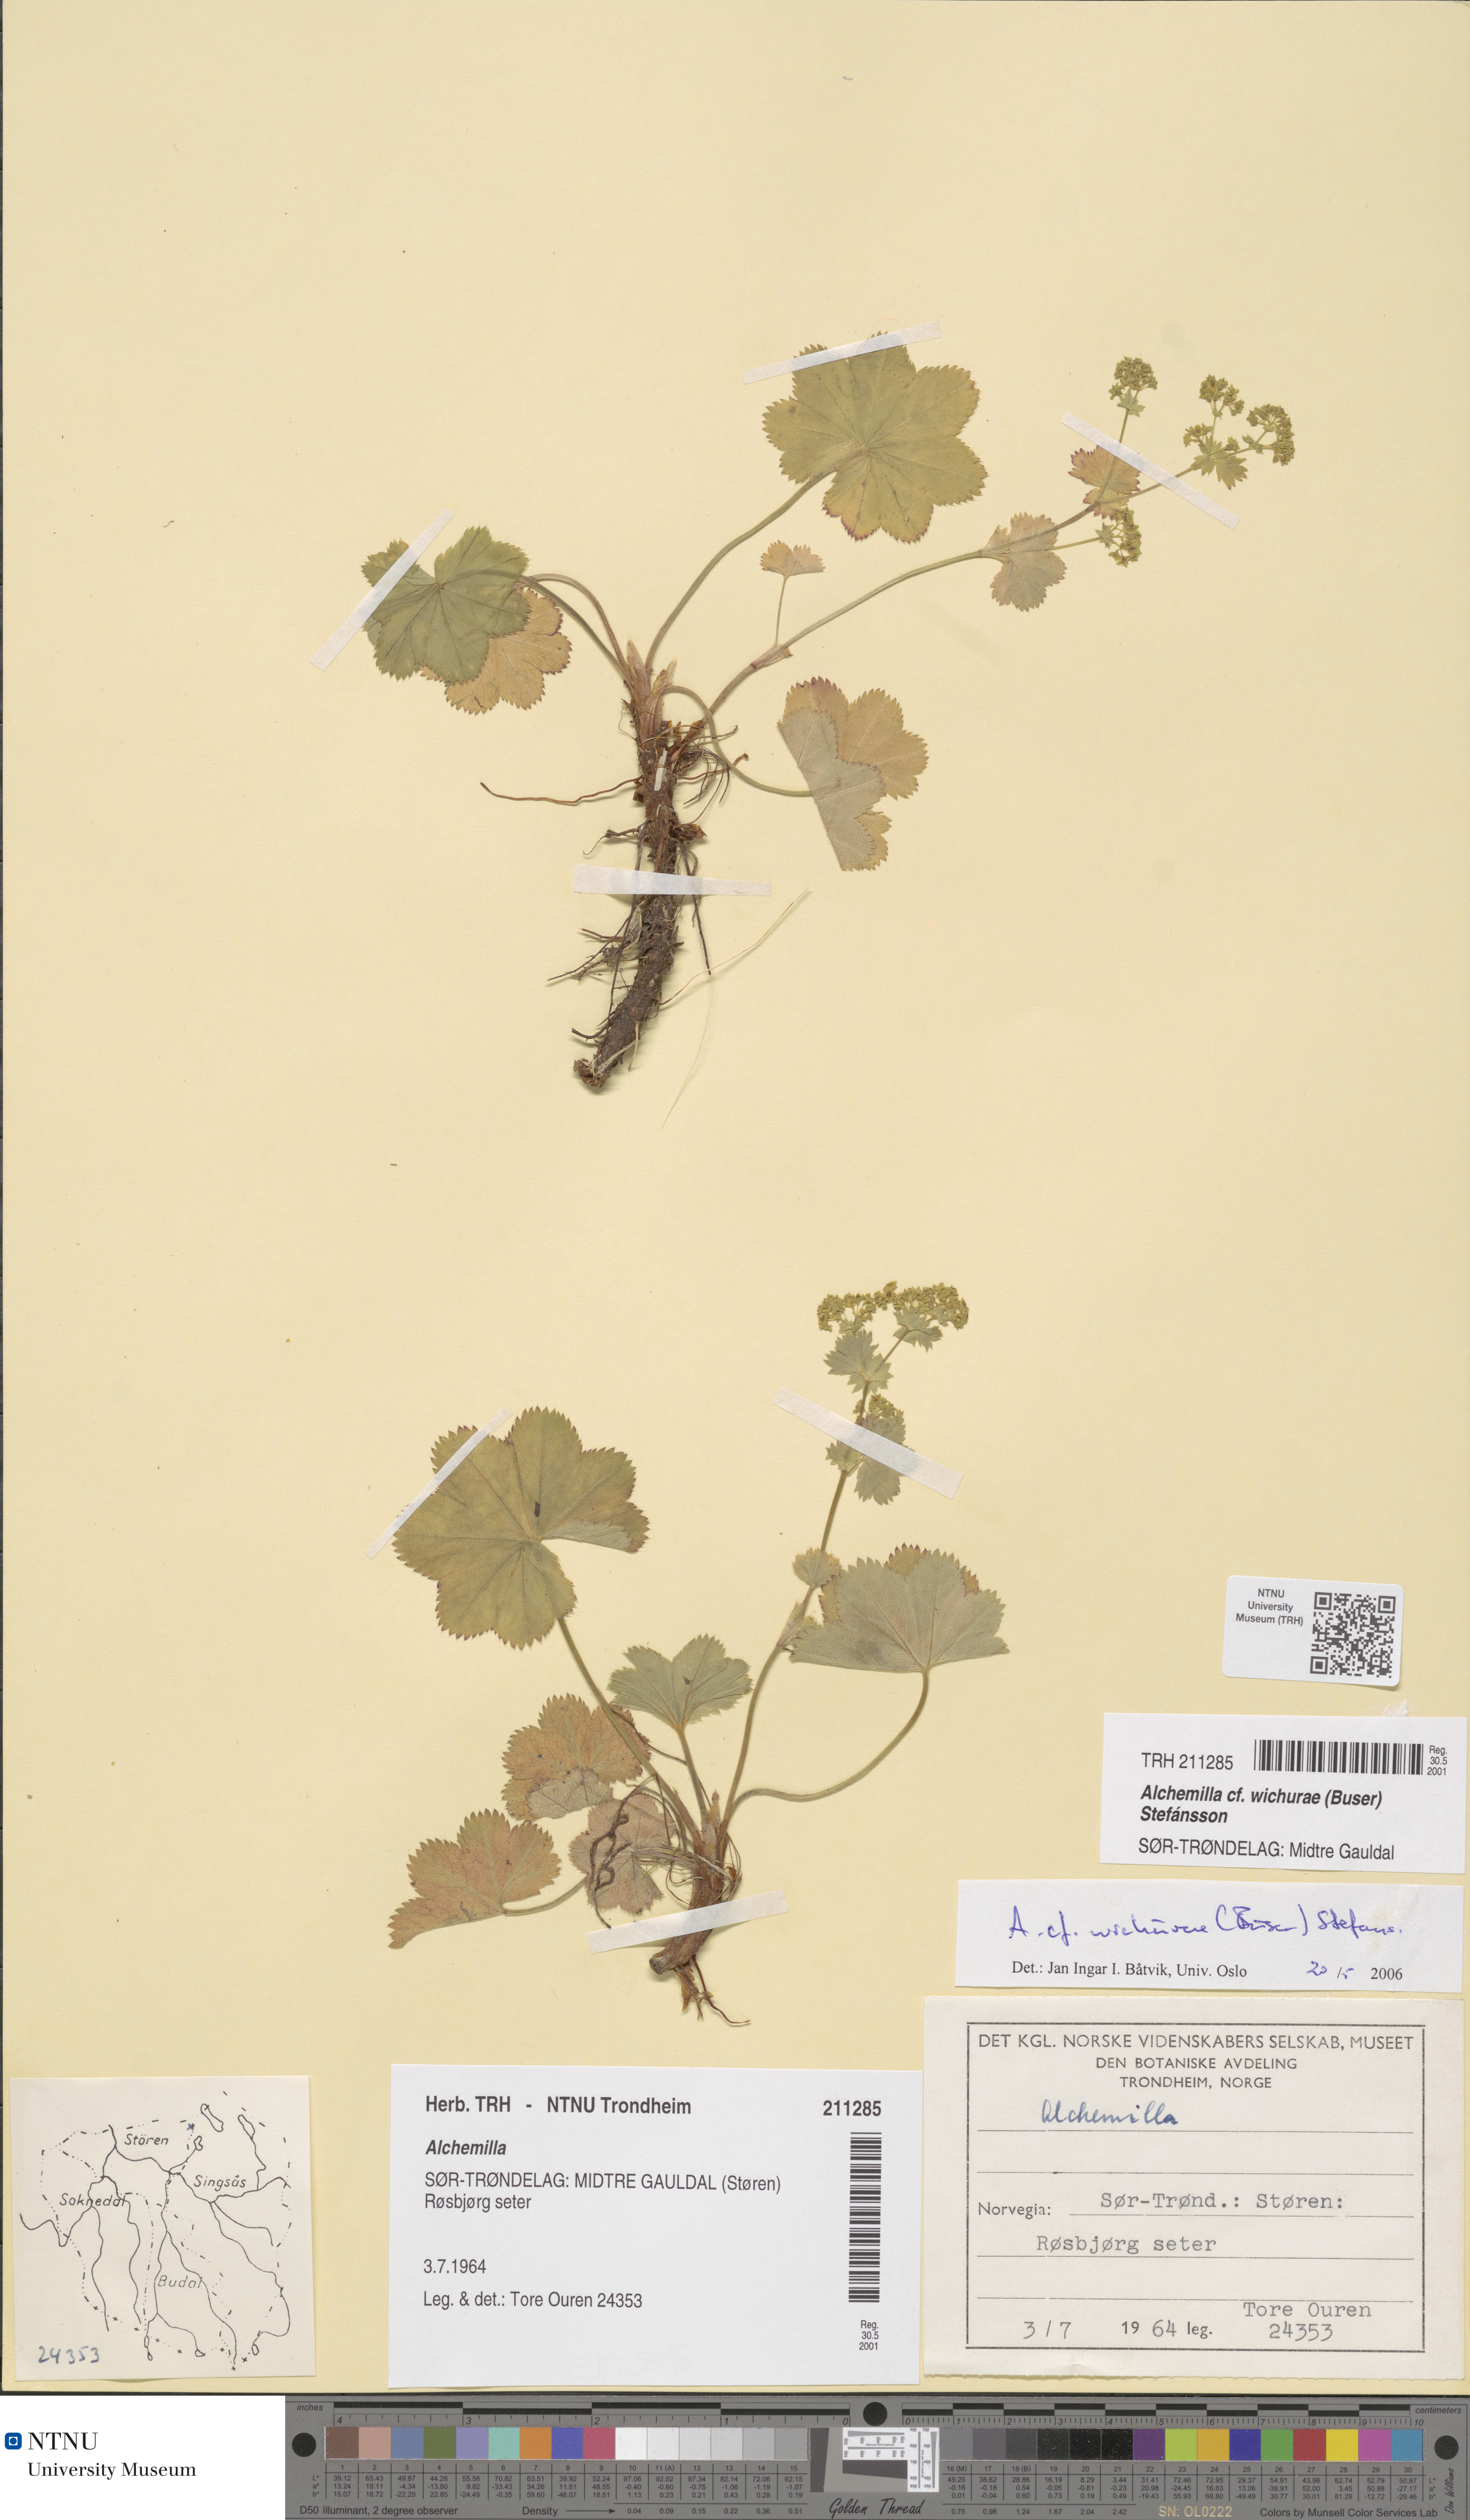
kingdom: Plantae
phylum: Tracheophyta
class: Magnoliopsida
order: Rosales
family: Rosaceae
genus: Alchemilla
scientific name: Alchemilla wichurae
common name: Rock lady's mantle
